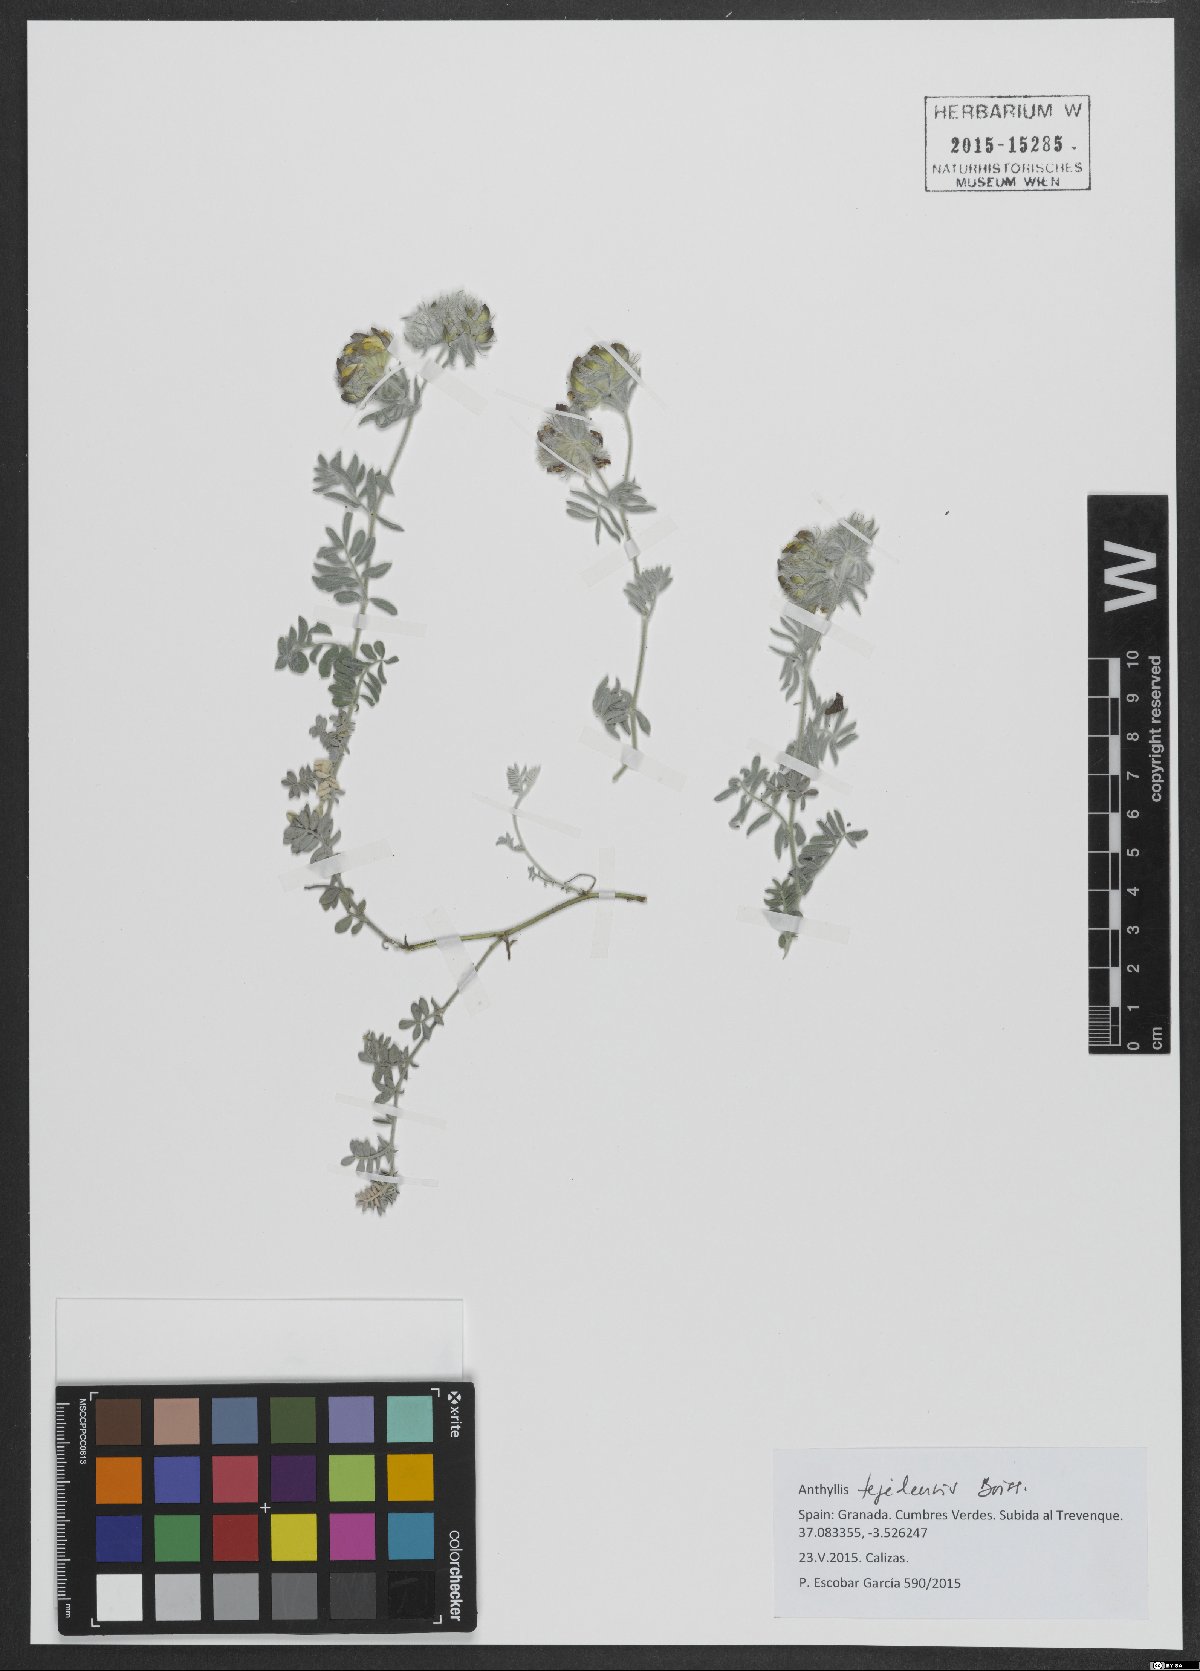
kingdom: Plantae
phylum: Tracheophyta
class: Magnoliopsida
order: Fabales
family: Fabaceae
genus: Anthyllis
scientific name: Anthyllis tejedensis
